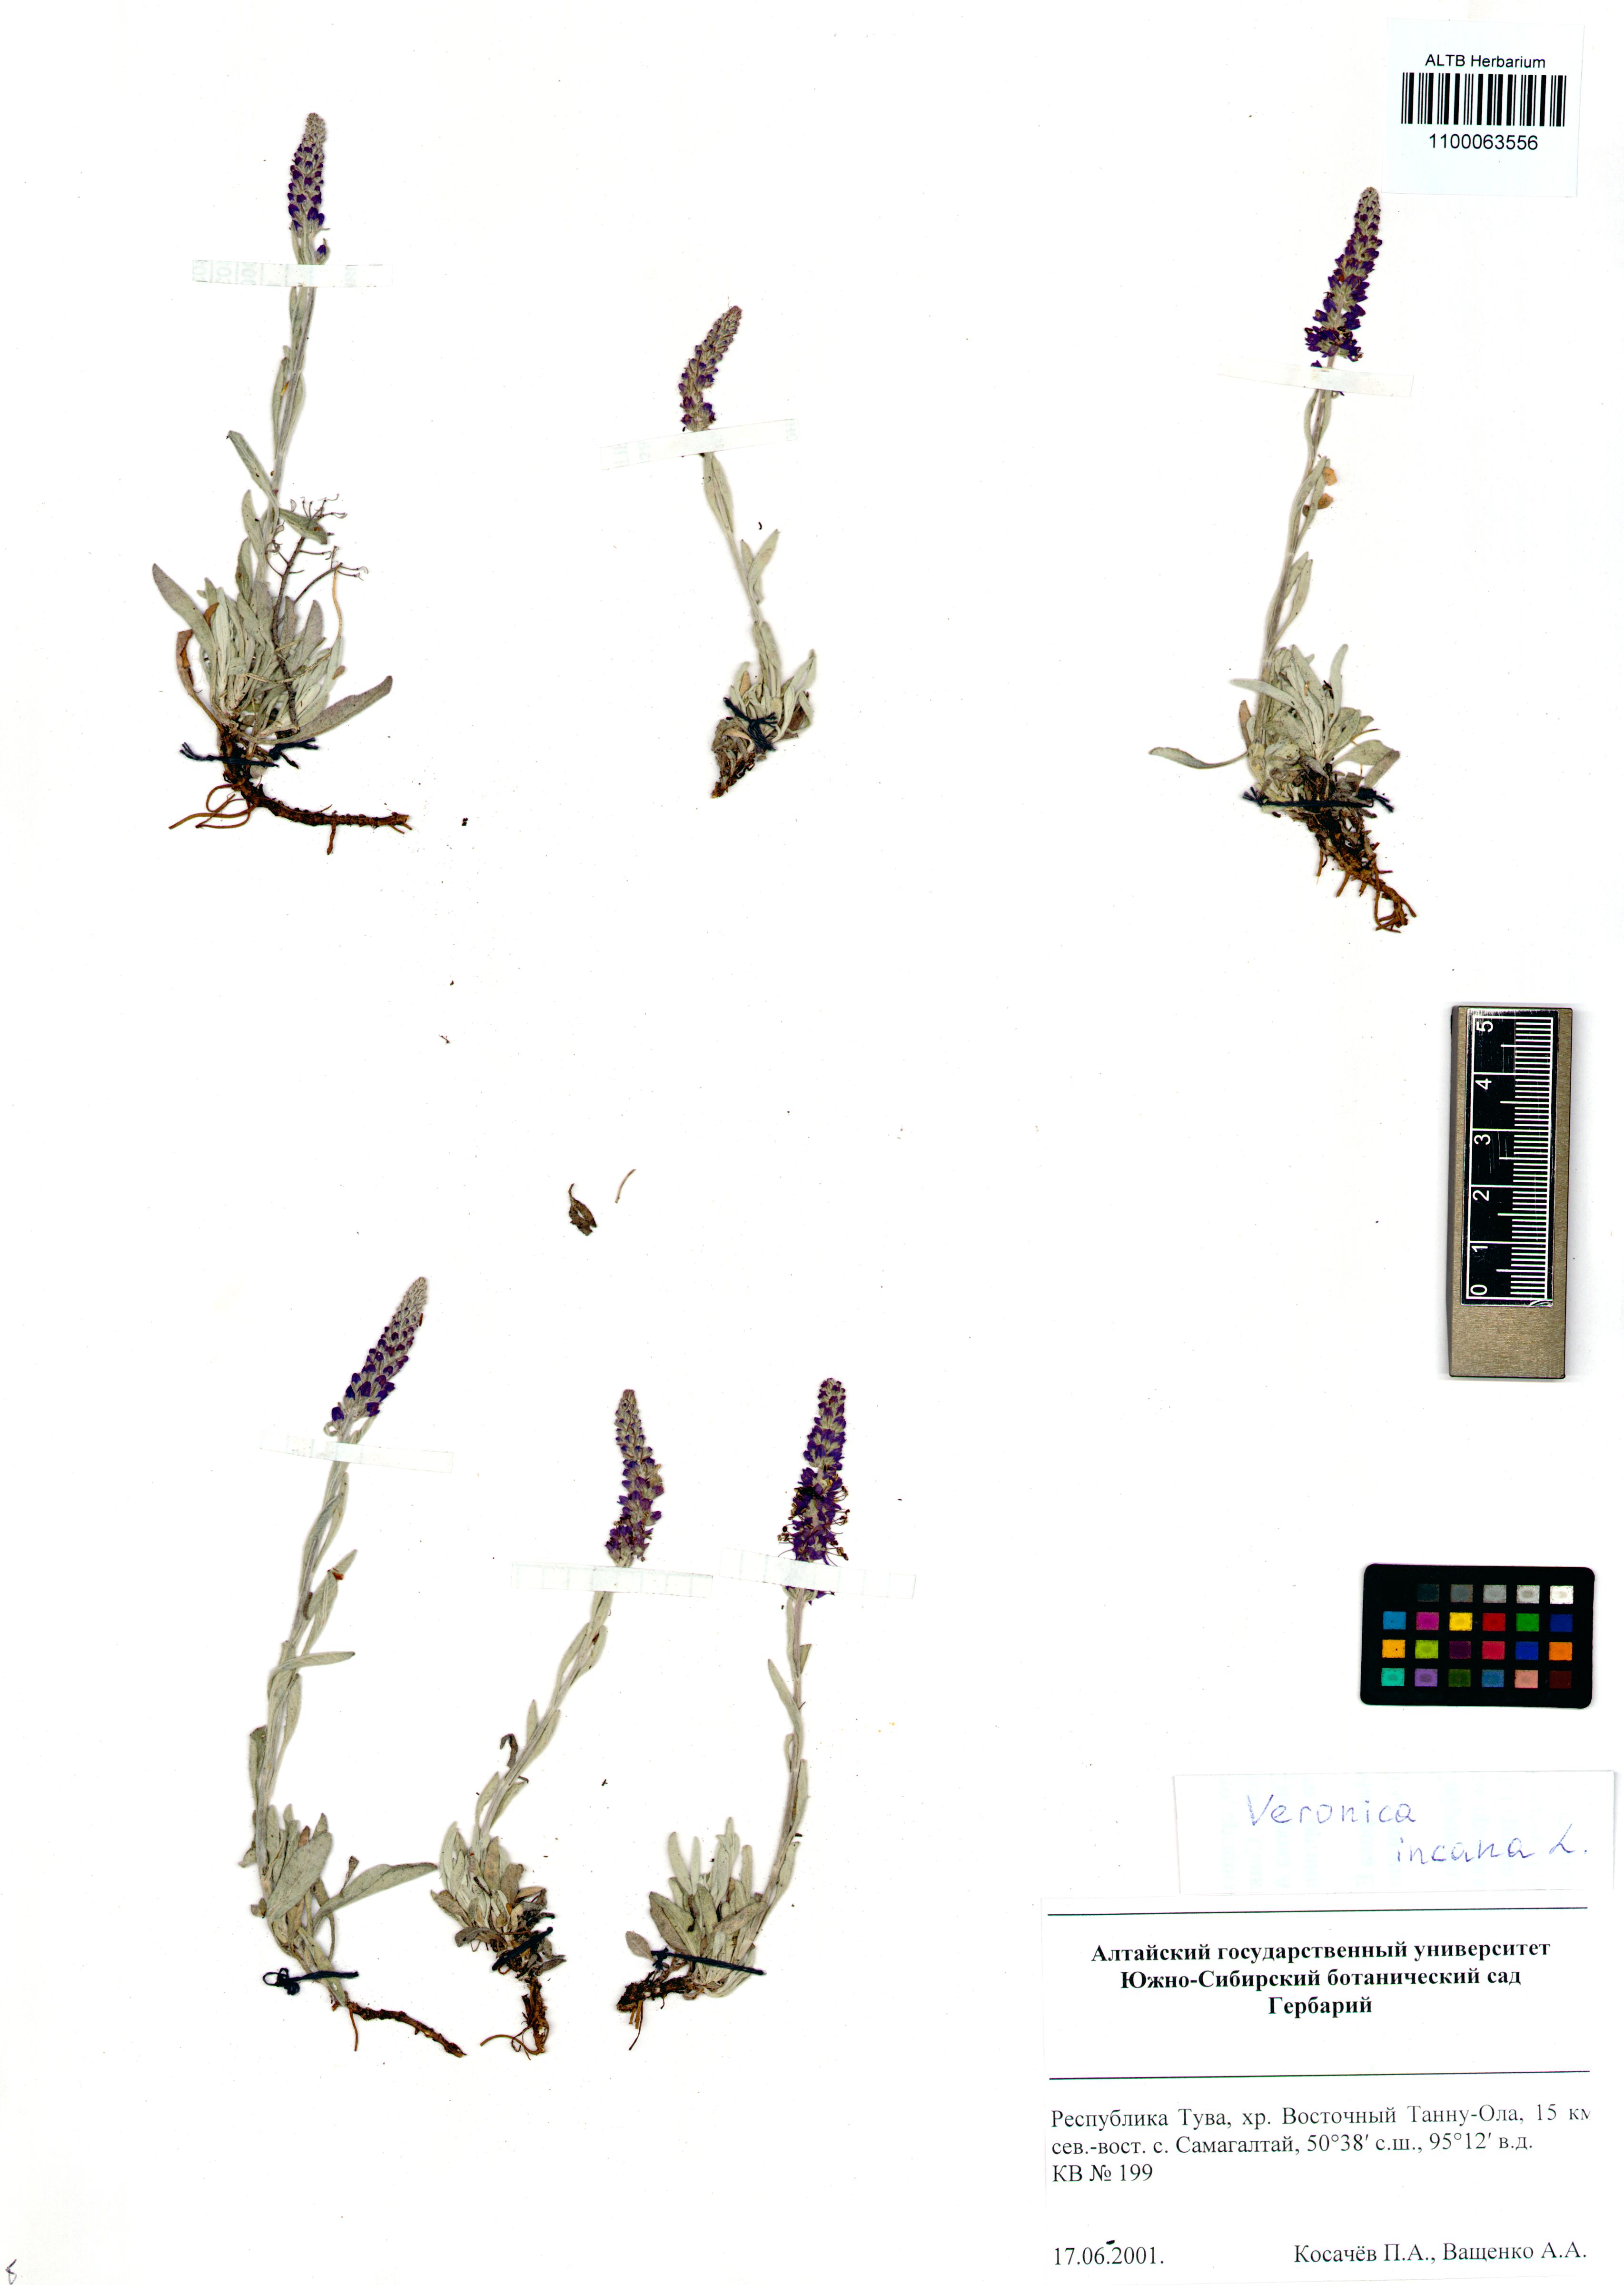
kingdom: Plantae
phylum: Tracheophyta
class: Magnoliopsida
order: Lamiales
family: Plantaginaceae
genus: Veronica
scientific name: Veronica incana
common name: Silver speedwell
